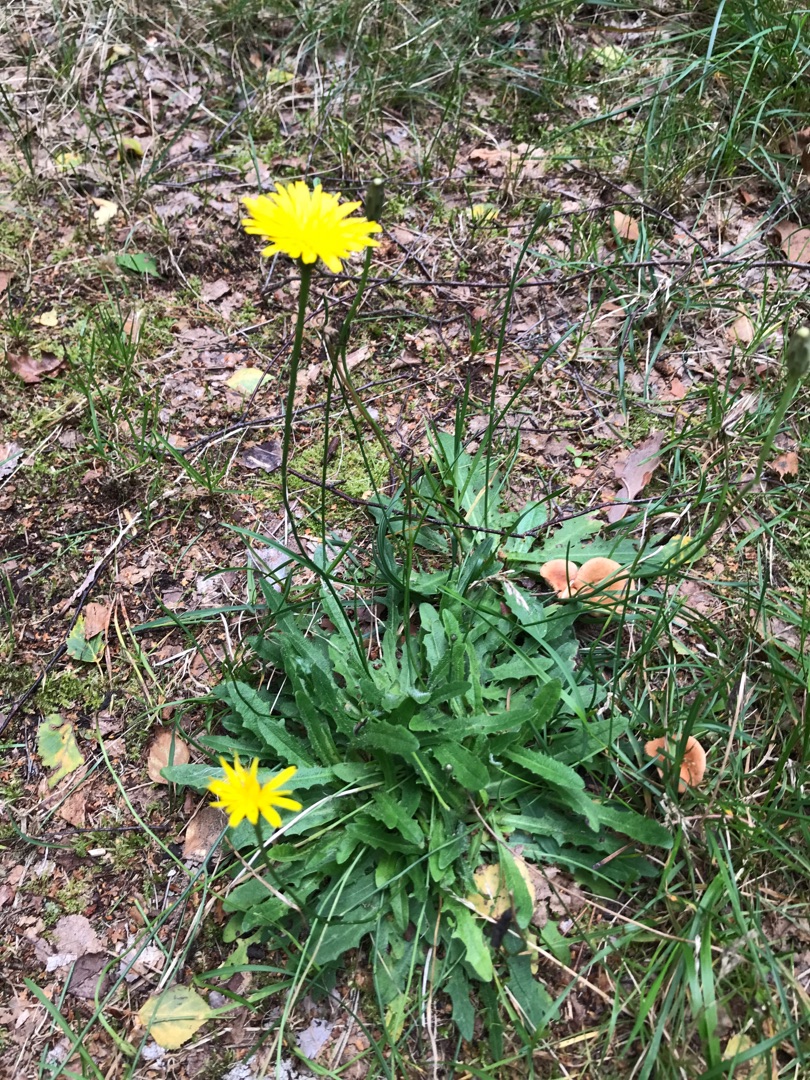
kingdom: Plantae
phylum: Tracheophyta
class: Magnoliopsida
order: Asterales
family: Asteraceae
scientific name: Asteraceae
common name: Kurvblomstfamilien
